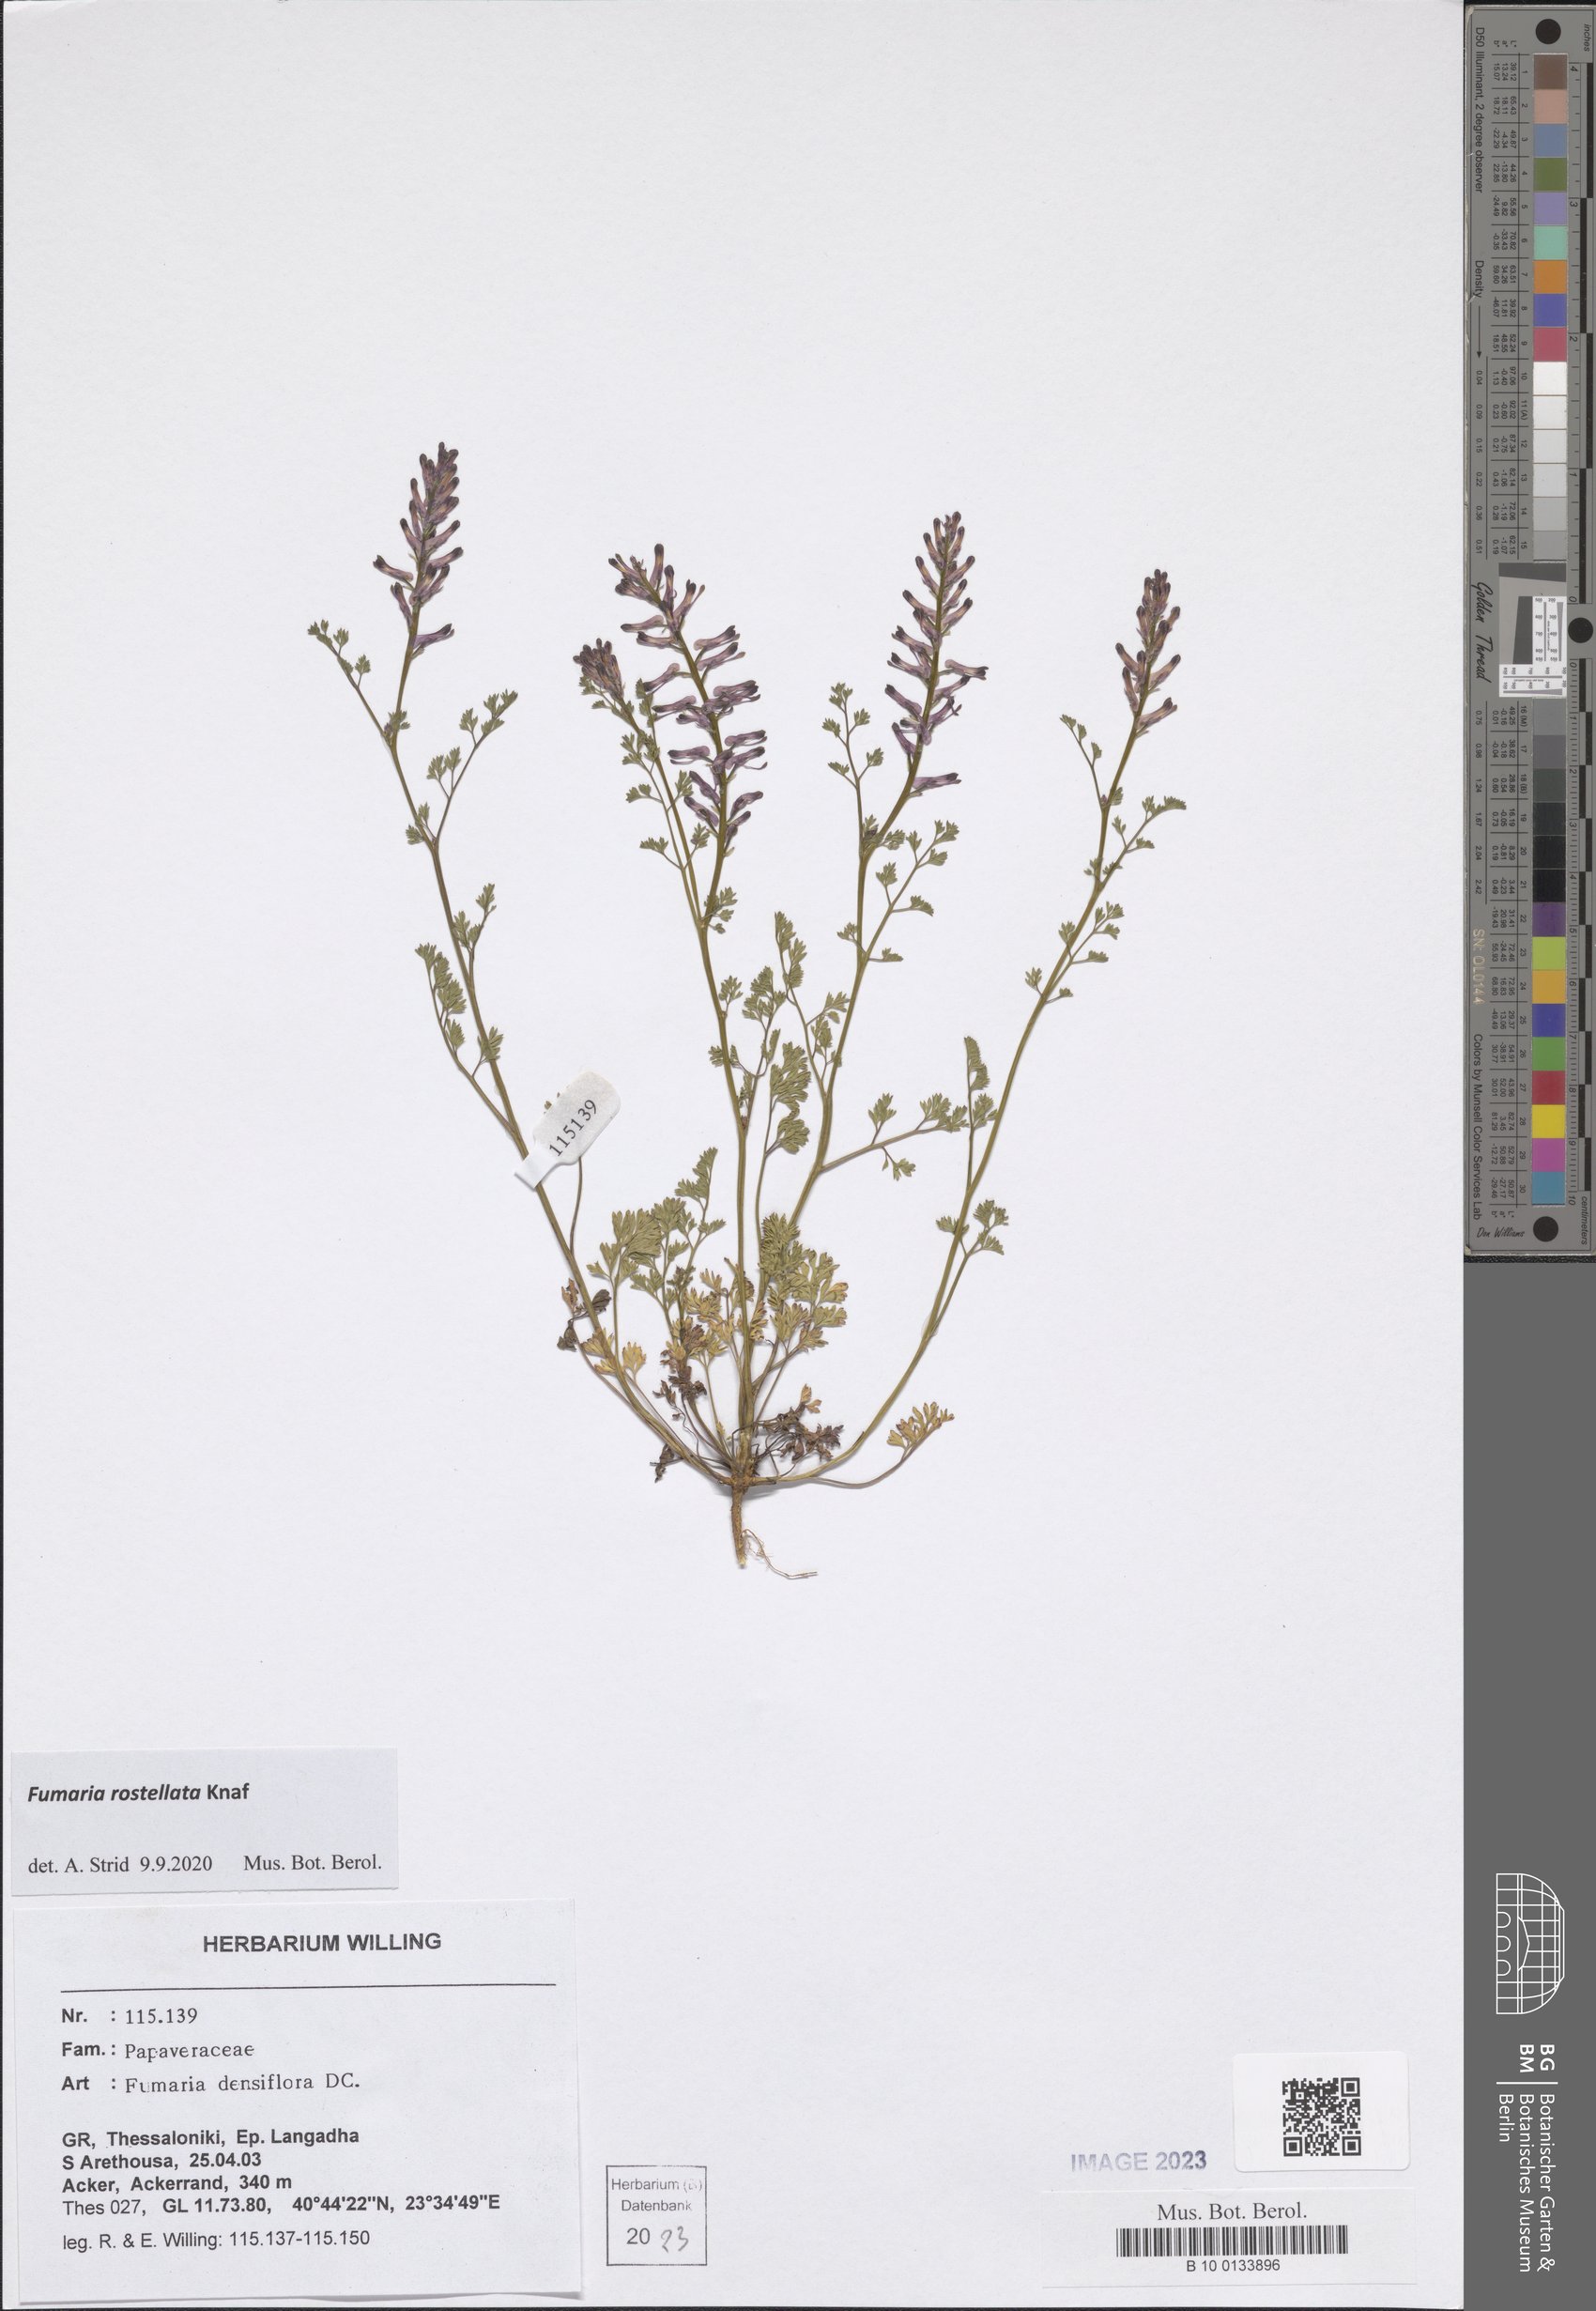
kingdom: Plantae
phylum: Tracheophyta
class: Magnoliopsida
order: Ranunculales
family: Papaveraceae
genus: Fumaria
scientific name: Fumaria rostellata
